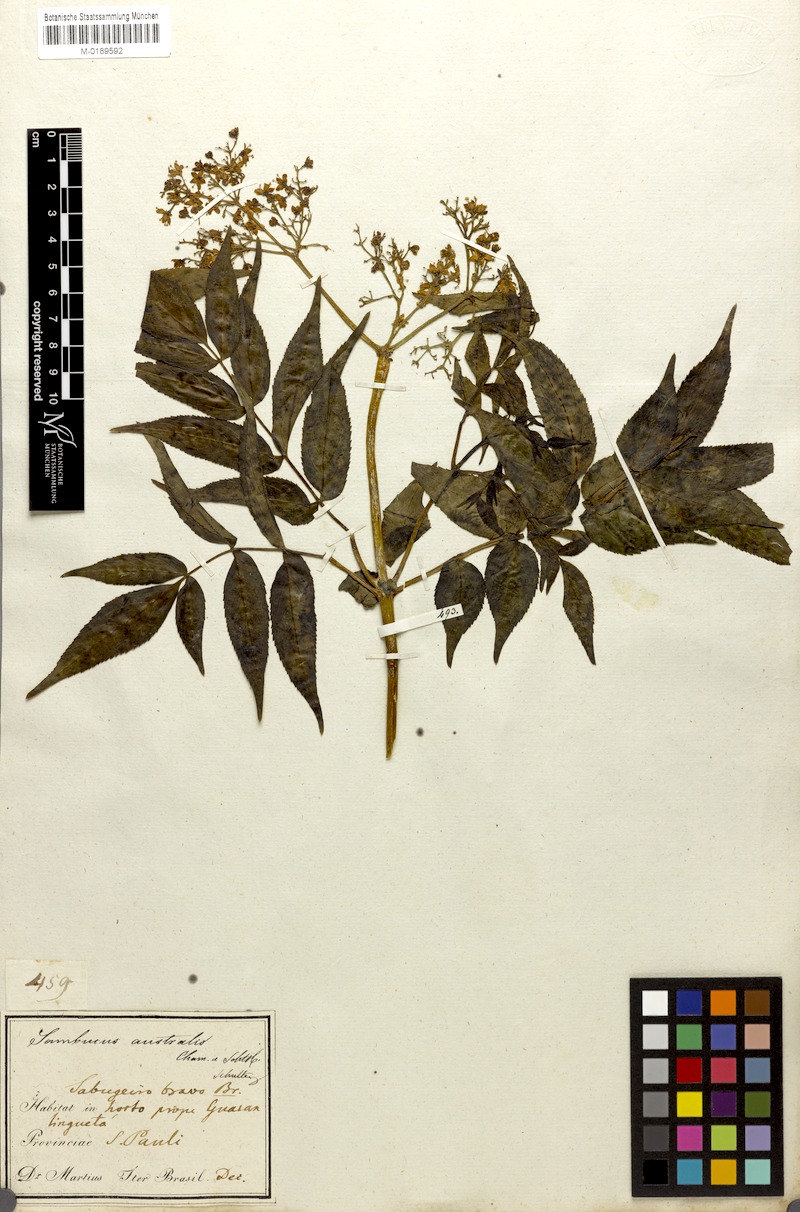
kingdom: Plantae
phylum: Tracheophyta
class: Magnoliopsida
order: Dipsacales
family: Viburnaceae
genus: Sambucus
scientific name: Sambucus australis
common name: Southern elder
